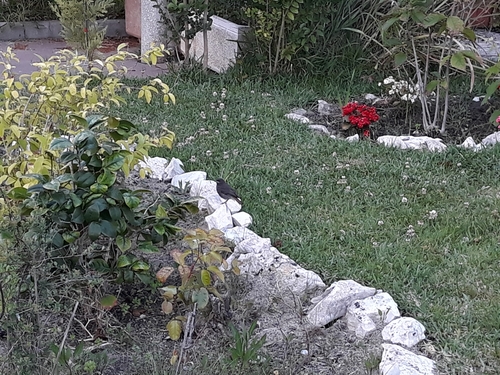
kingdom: Animalia
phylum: Chordata
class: Aves
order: Passeriformes
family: Muscicapidae
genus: Phoenicurus
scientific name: Phoenicurus ochruros
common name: Black redstart
